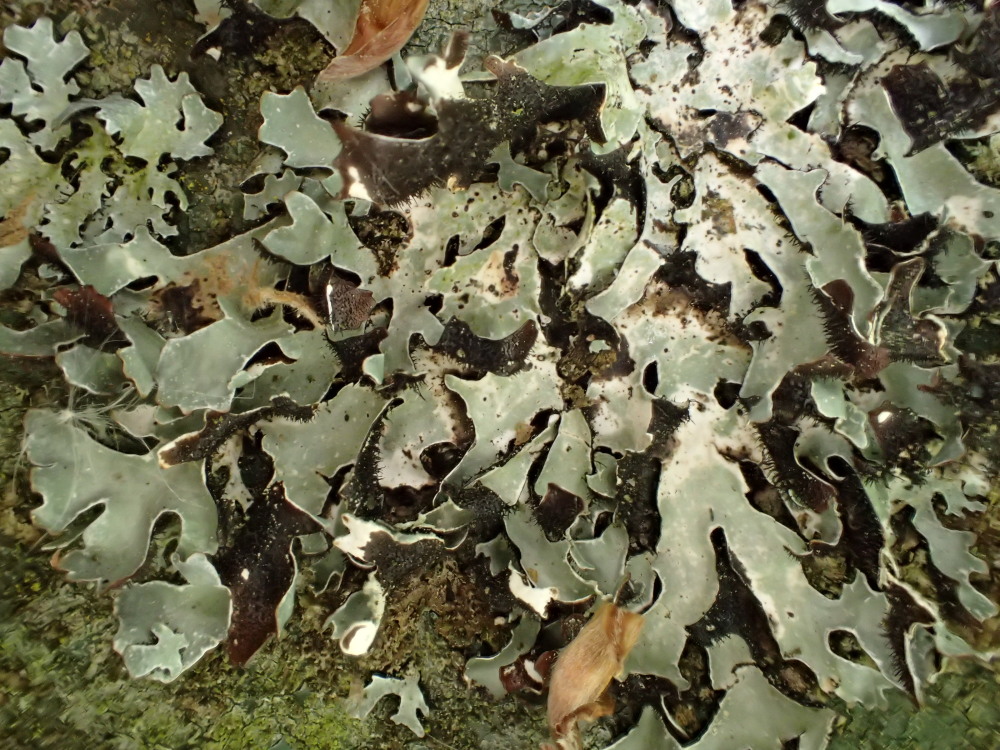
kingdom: Fungi
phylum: Ascomycota
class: Lecanoromycetes
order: Lecanorales
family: Parmeliaceae
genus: Parmelia
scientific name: Parmelia sulcata
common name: rynket skållav
